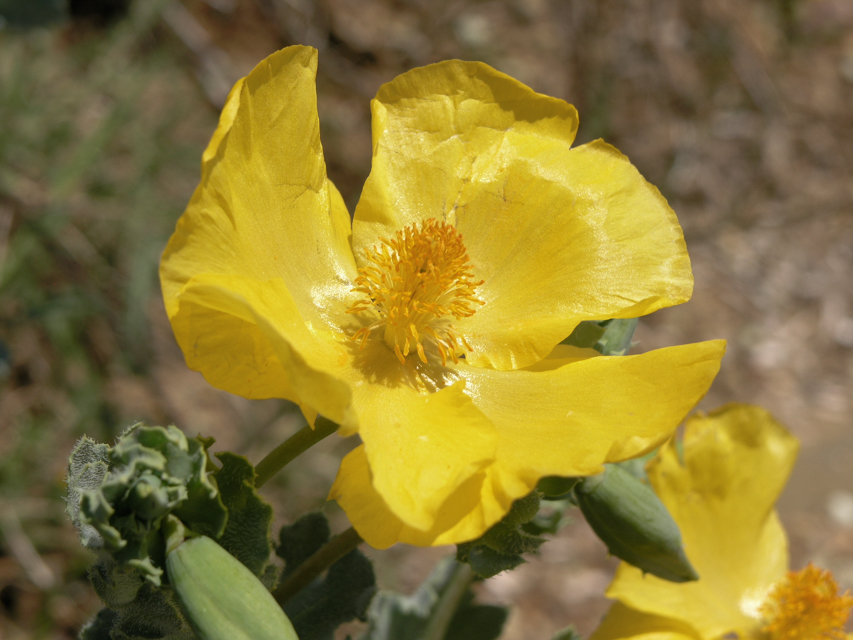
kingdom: Plantae
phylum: Tracheophyta
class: Magnoliopsida
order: Ranunculales
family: Papaveraceae
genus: Glaucium
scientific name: Glaucium flavum
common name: Yellow horned-poppy
